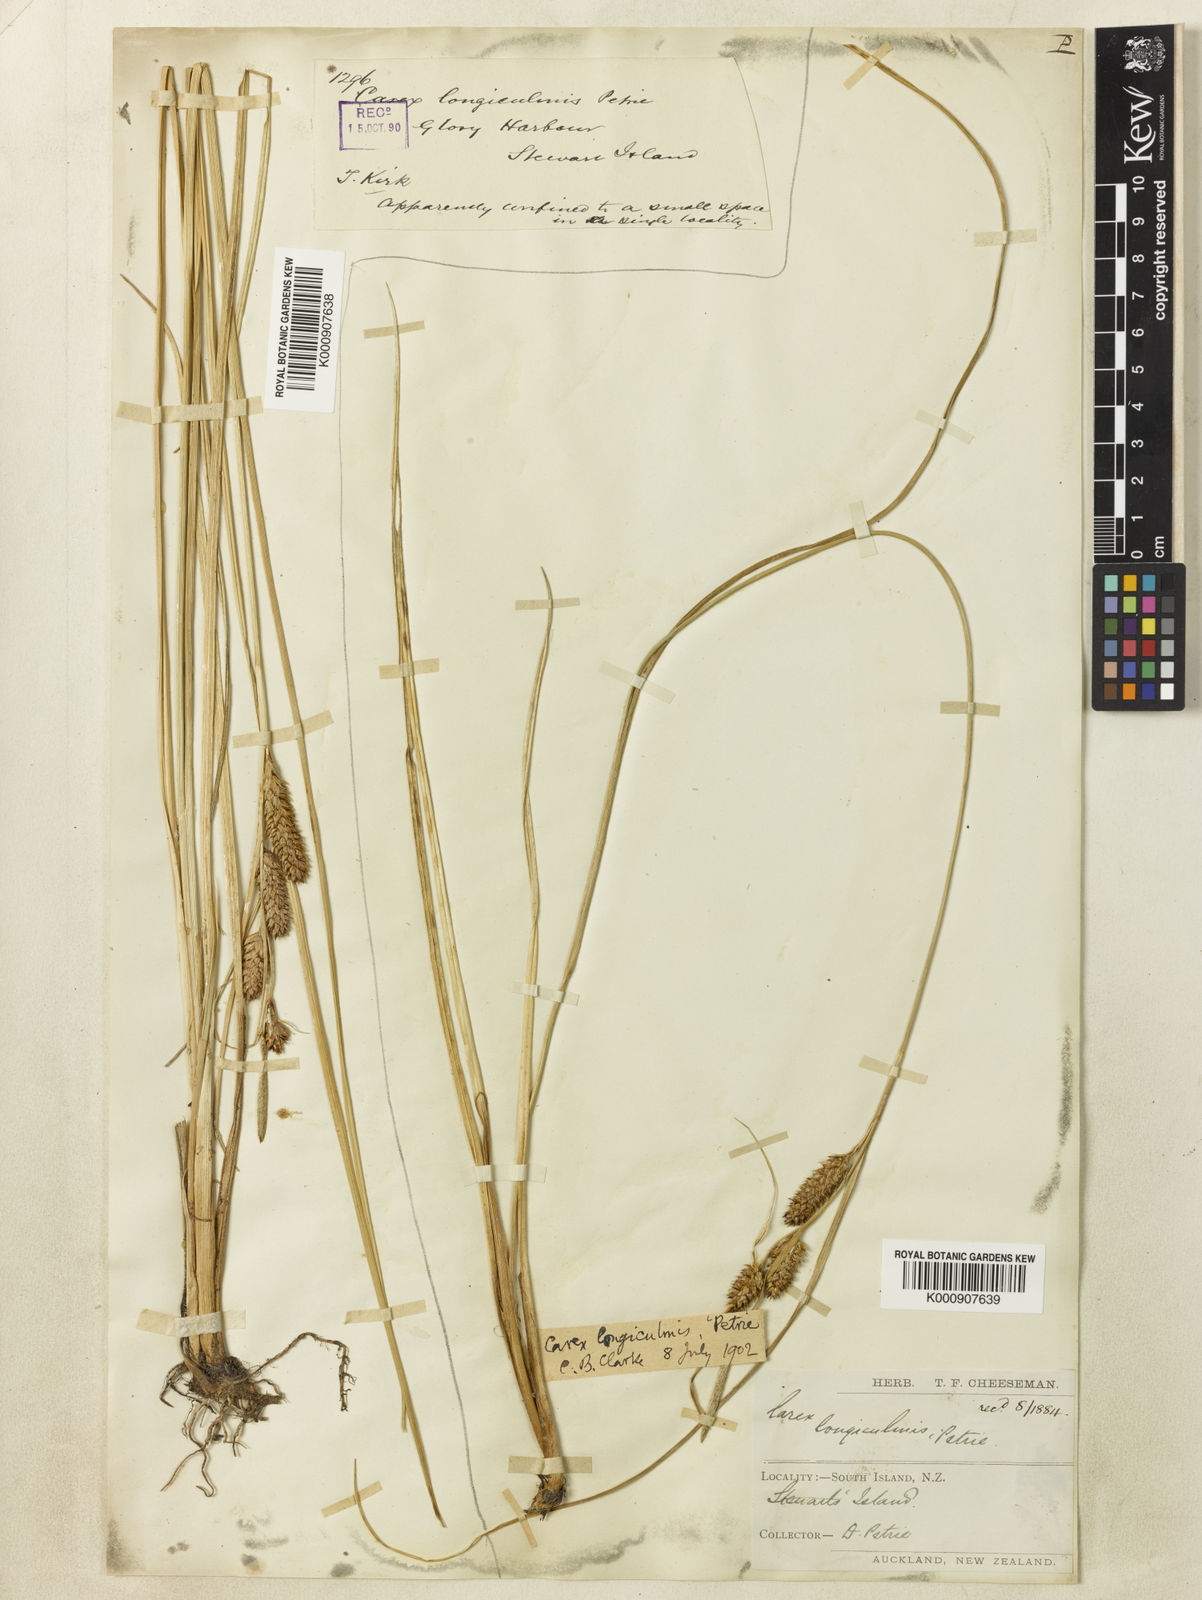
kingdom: Plantae
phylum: Tracheophyta
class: Liliopsida
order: Poales
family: Cyperaceae
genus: Carex
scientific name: Carex longiculmis
